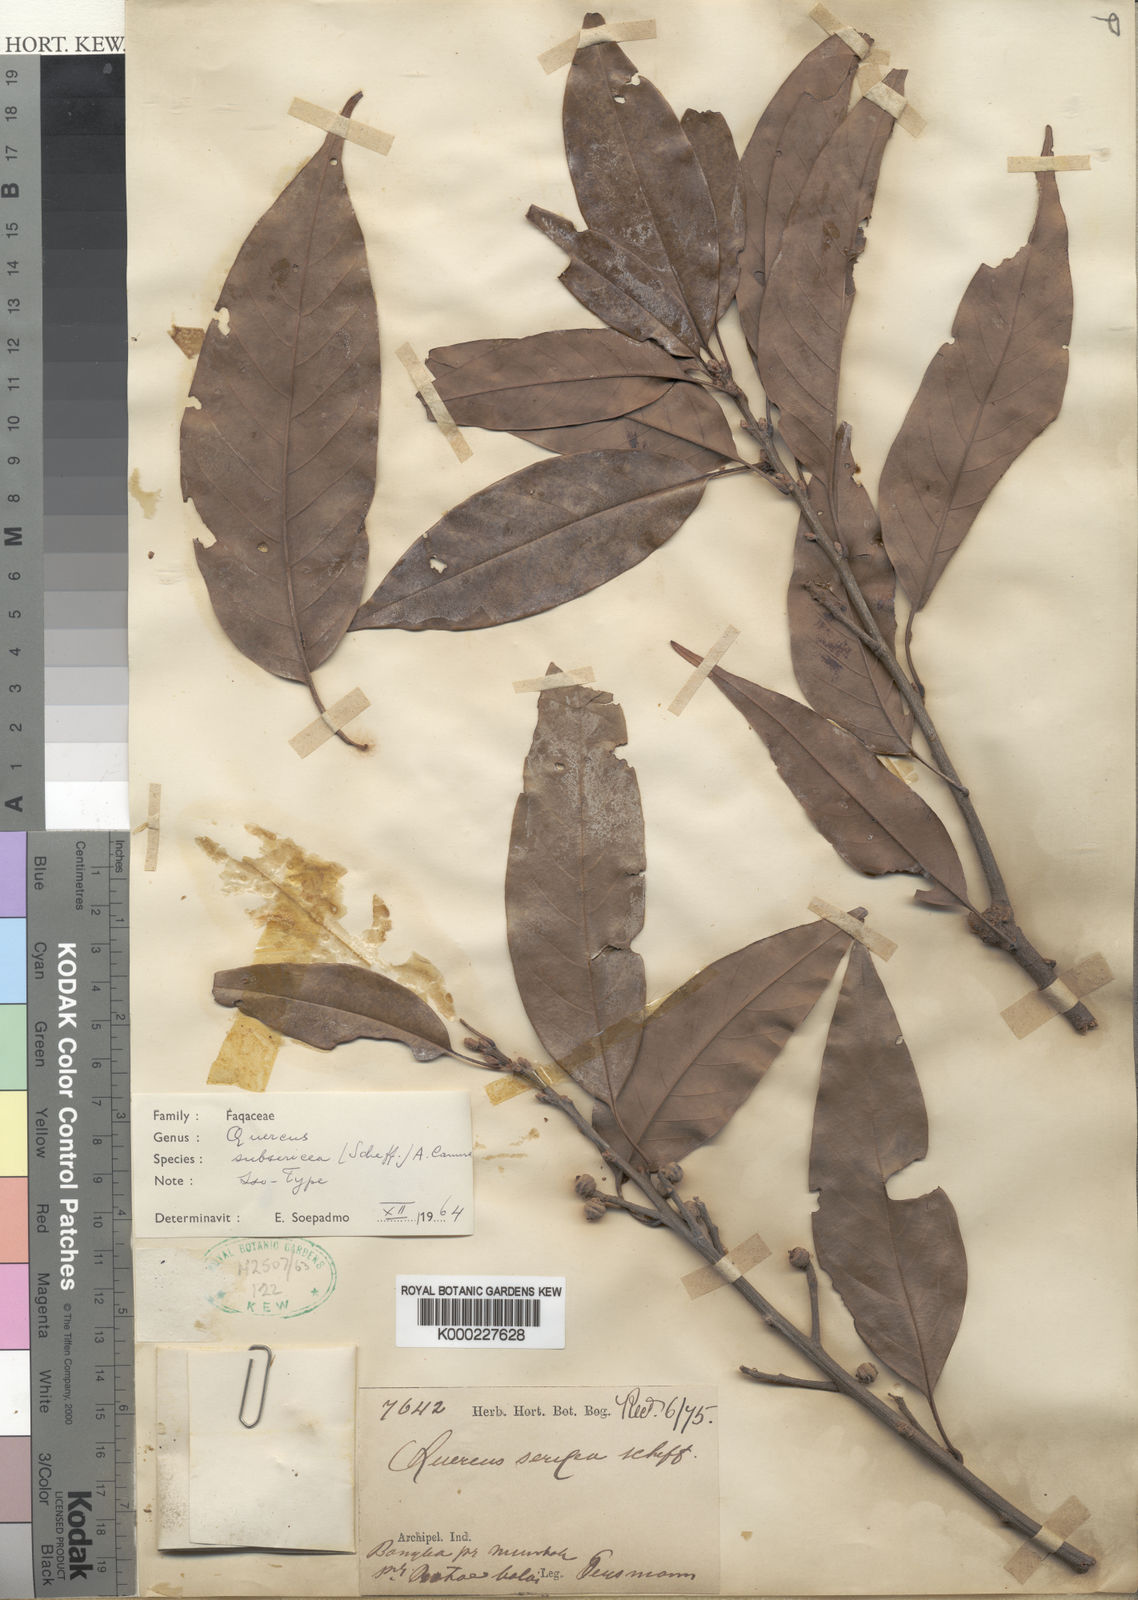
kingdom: Plantae
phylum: Tracheophyta
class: Magnoliopsida
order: Fagales
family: Fagaceae
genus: Quercus
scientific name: Quercus subsericea
